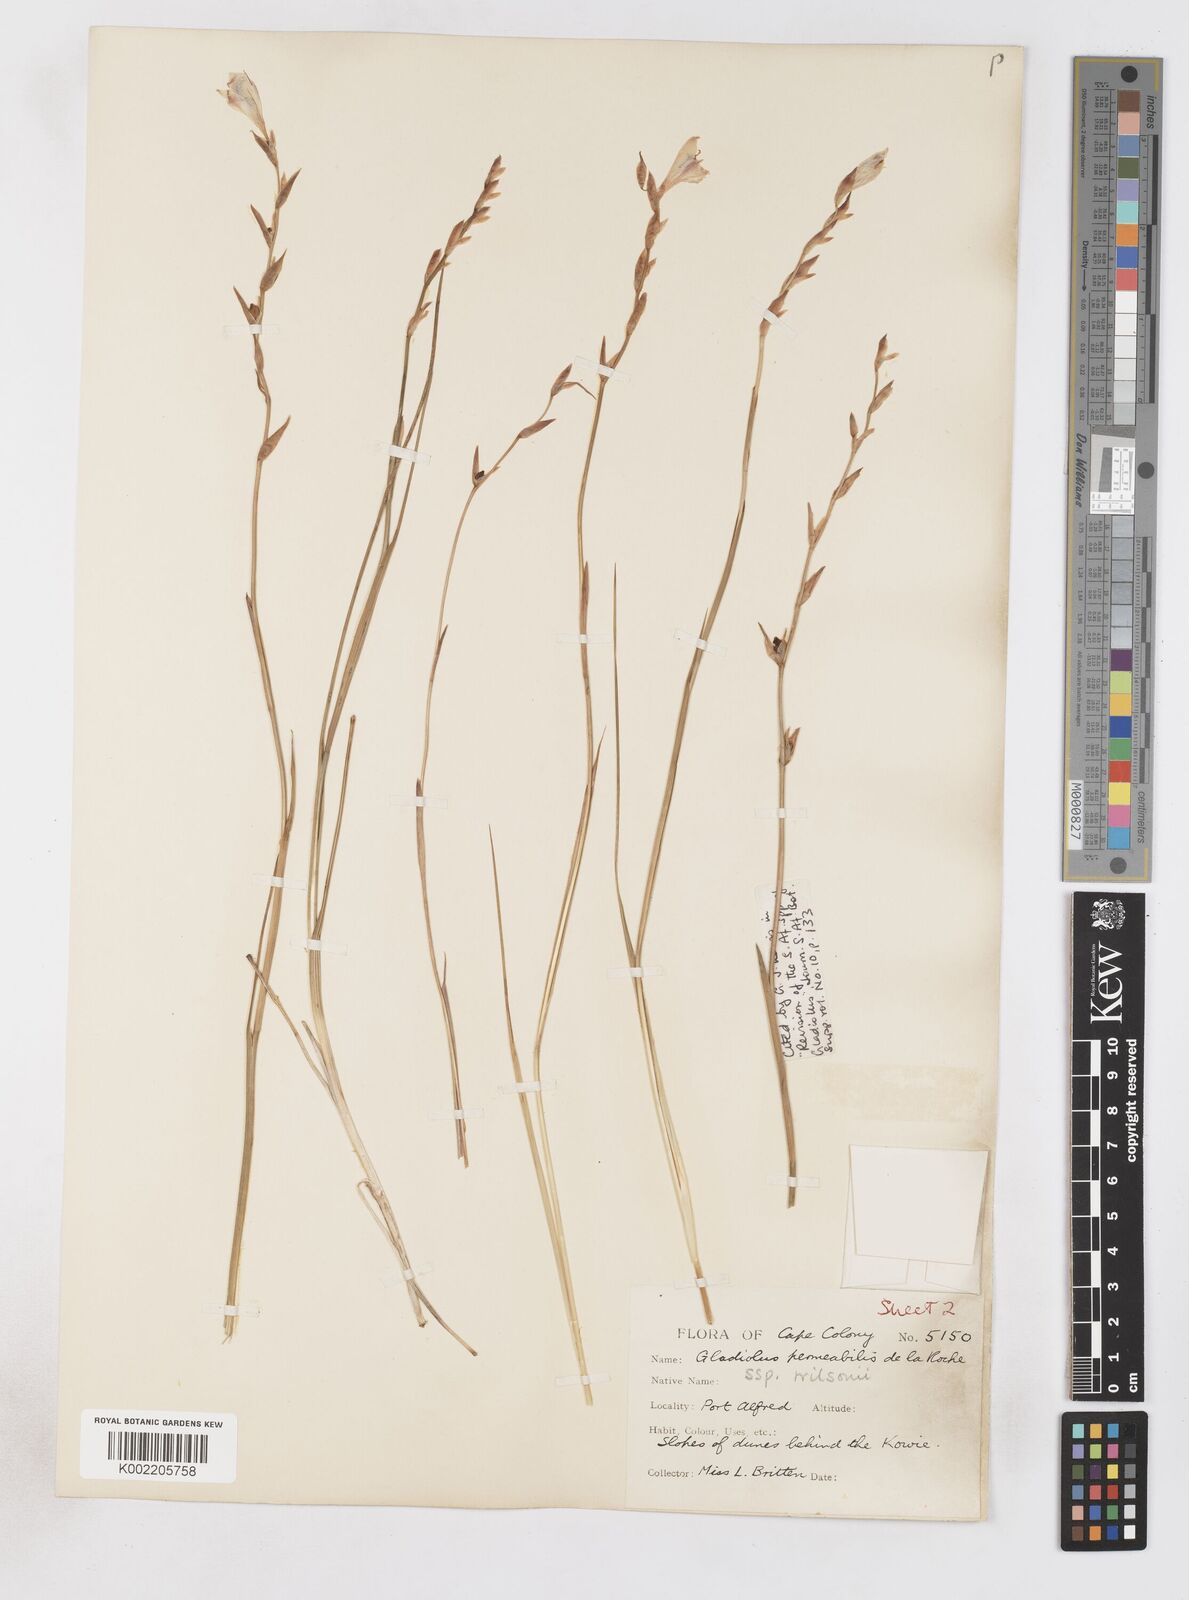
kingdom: Plantae
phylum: Tracheophyta
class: Liliopsida
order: Asparagales
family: Iridaceae
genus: Gladiolus
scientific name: Gladiolus wilsonii
